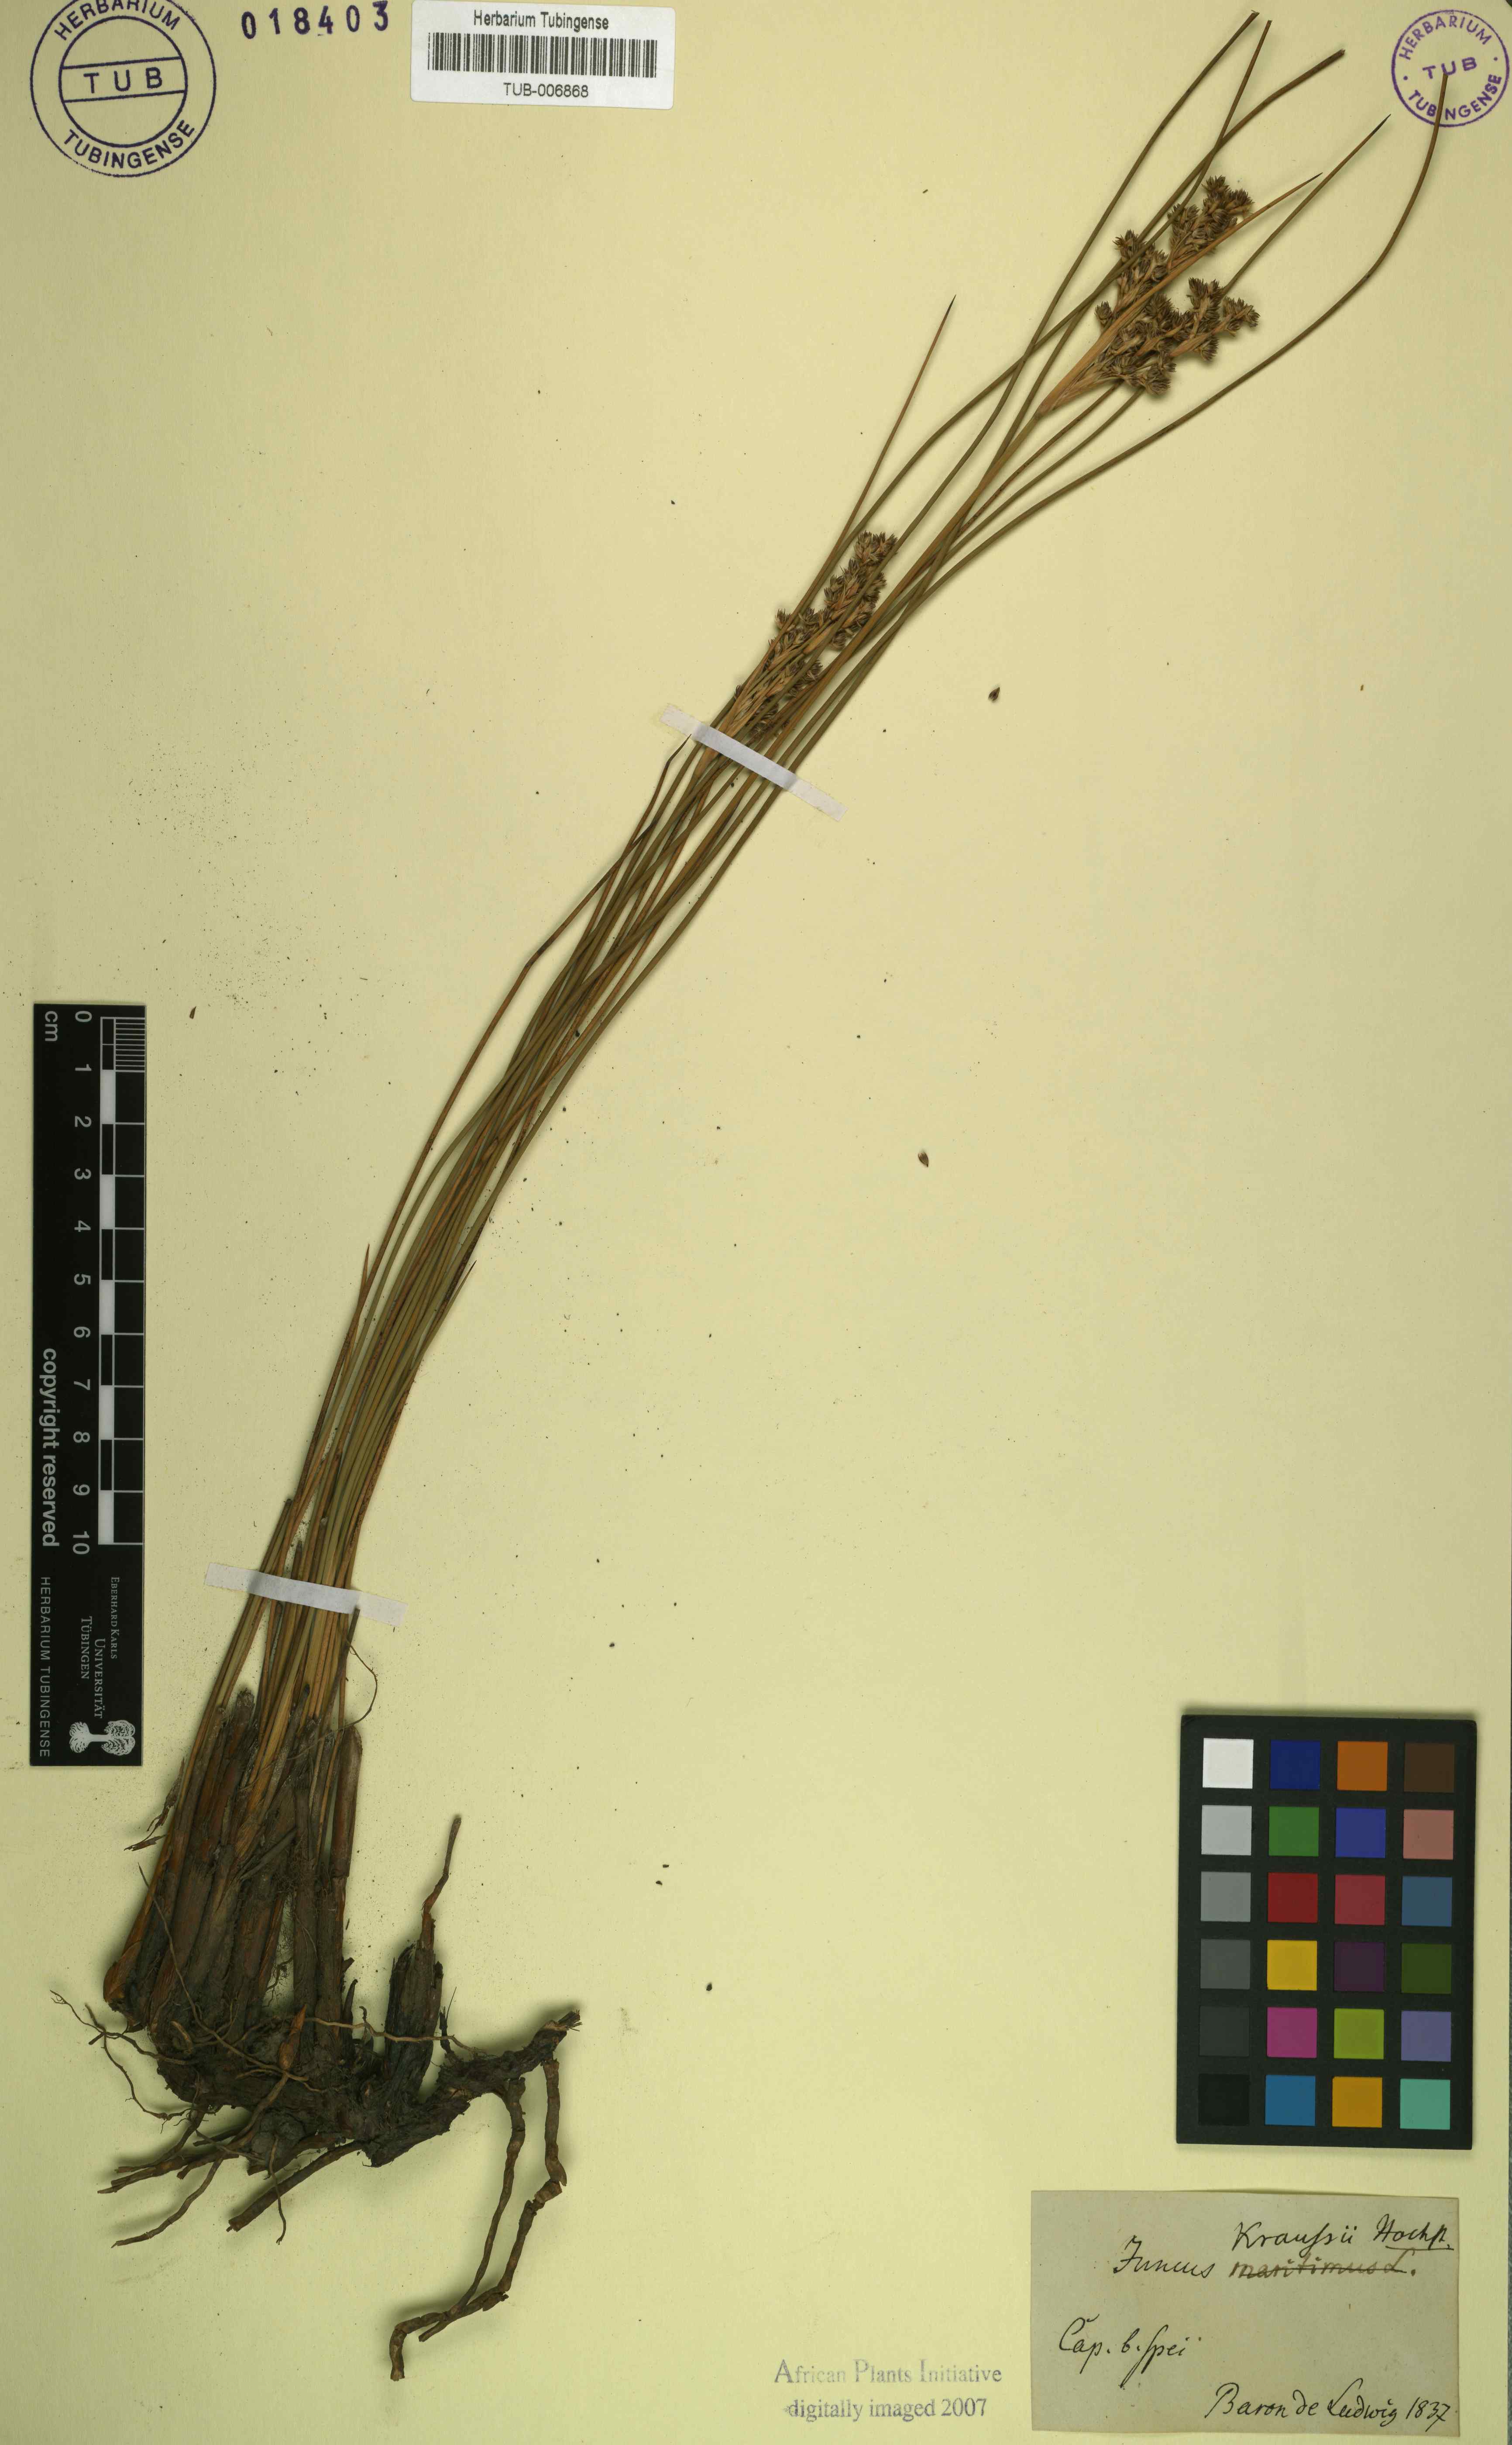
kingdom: Plantae
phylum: Tracheophyta
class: Liliopsida
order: Poales
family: Juncaceae
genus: Juncus
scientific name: Juncus kraussii
